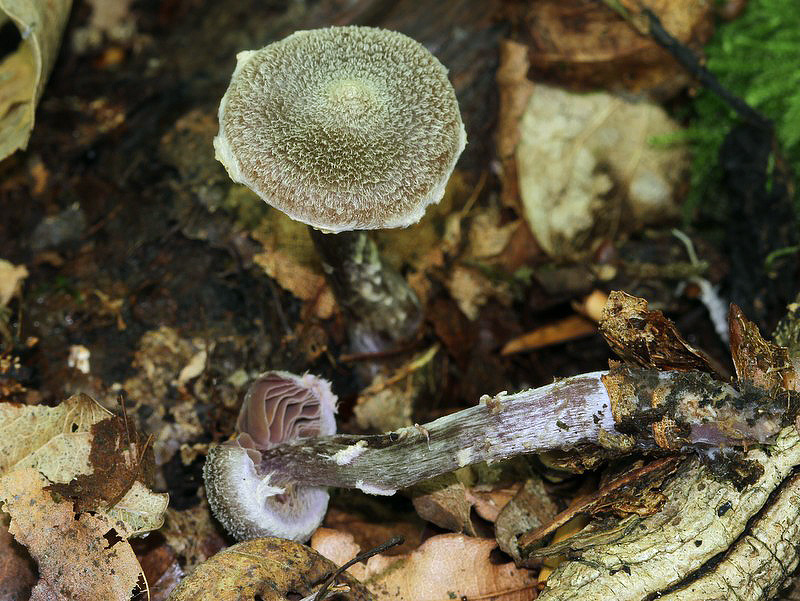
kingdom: Fungi
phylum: Basidiomycota
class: Agaricomycetes
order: Agaricales
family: Cortinariaceae
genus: Cortinarius
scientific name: Cortinarius
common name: pelargonie-slørhat
